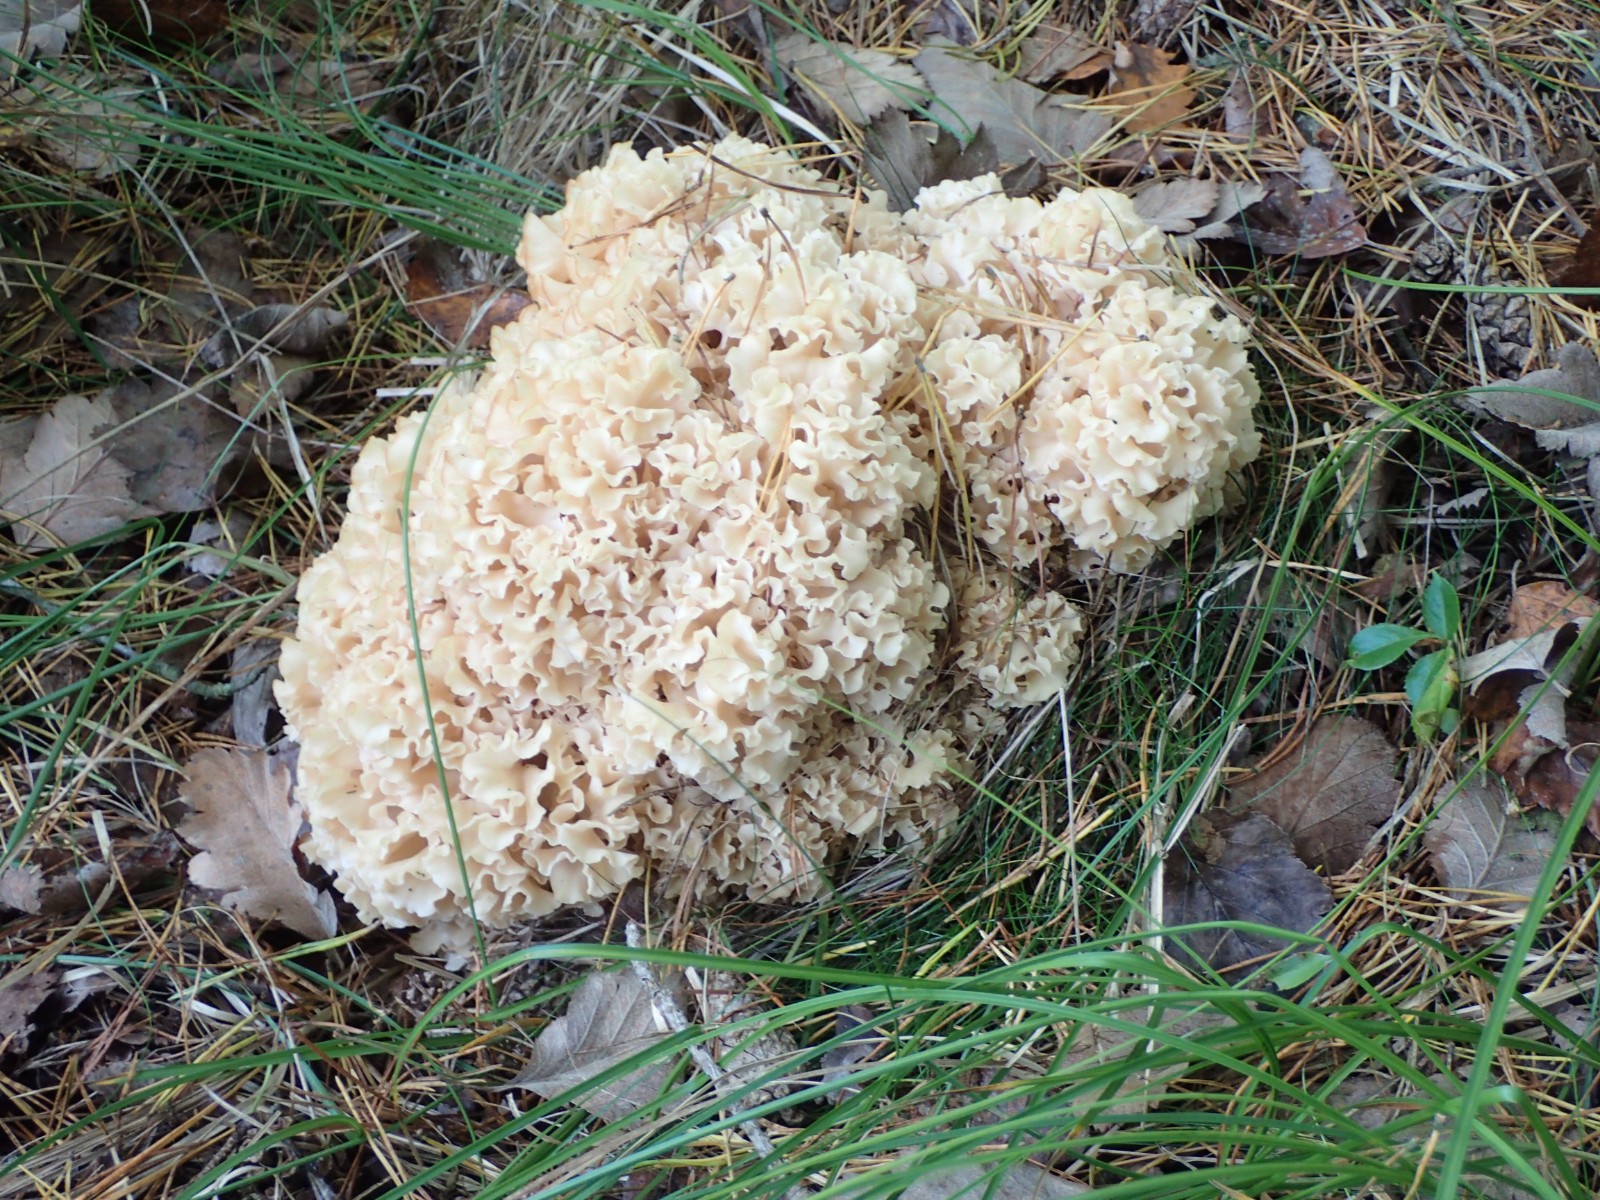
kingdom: Fungi
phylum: Basidiomycota
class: Agaricomycetes
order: Polyporales
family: Sparassidaceae
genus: Sparassis
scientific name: Sparassis crispa
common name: kruset blomkålssvamp
